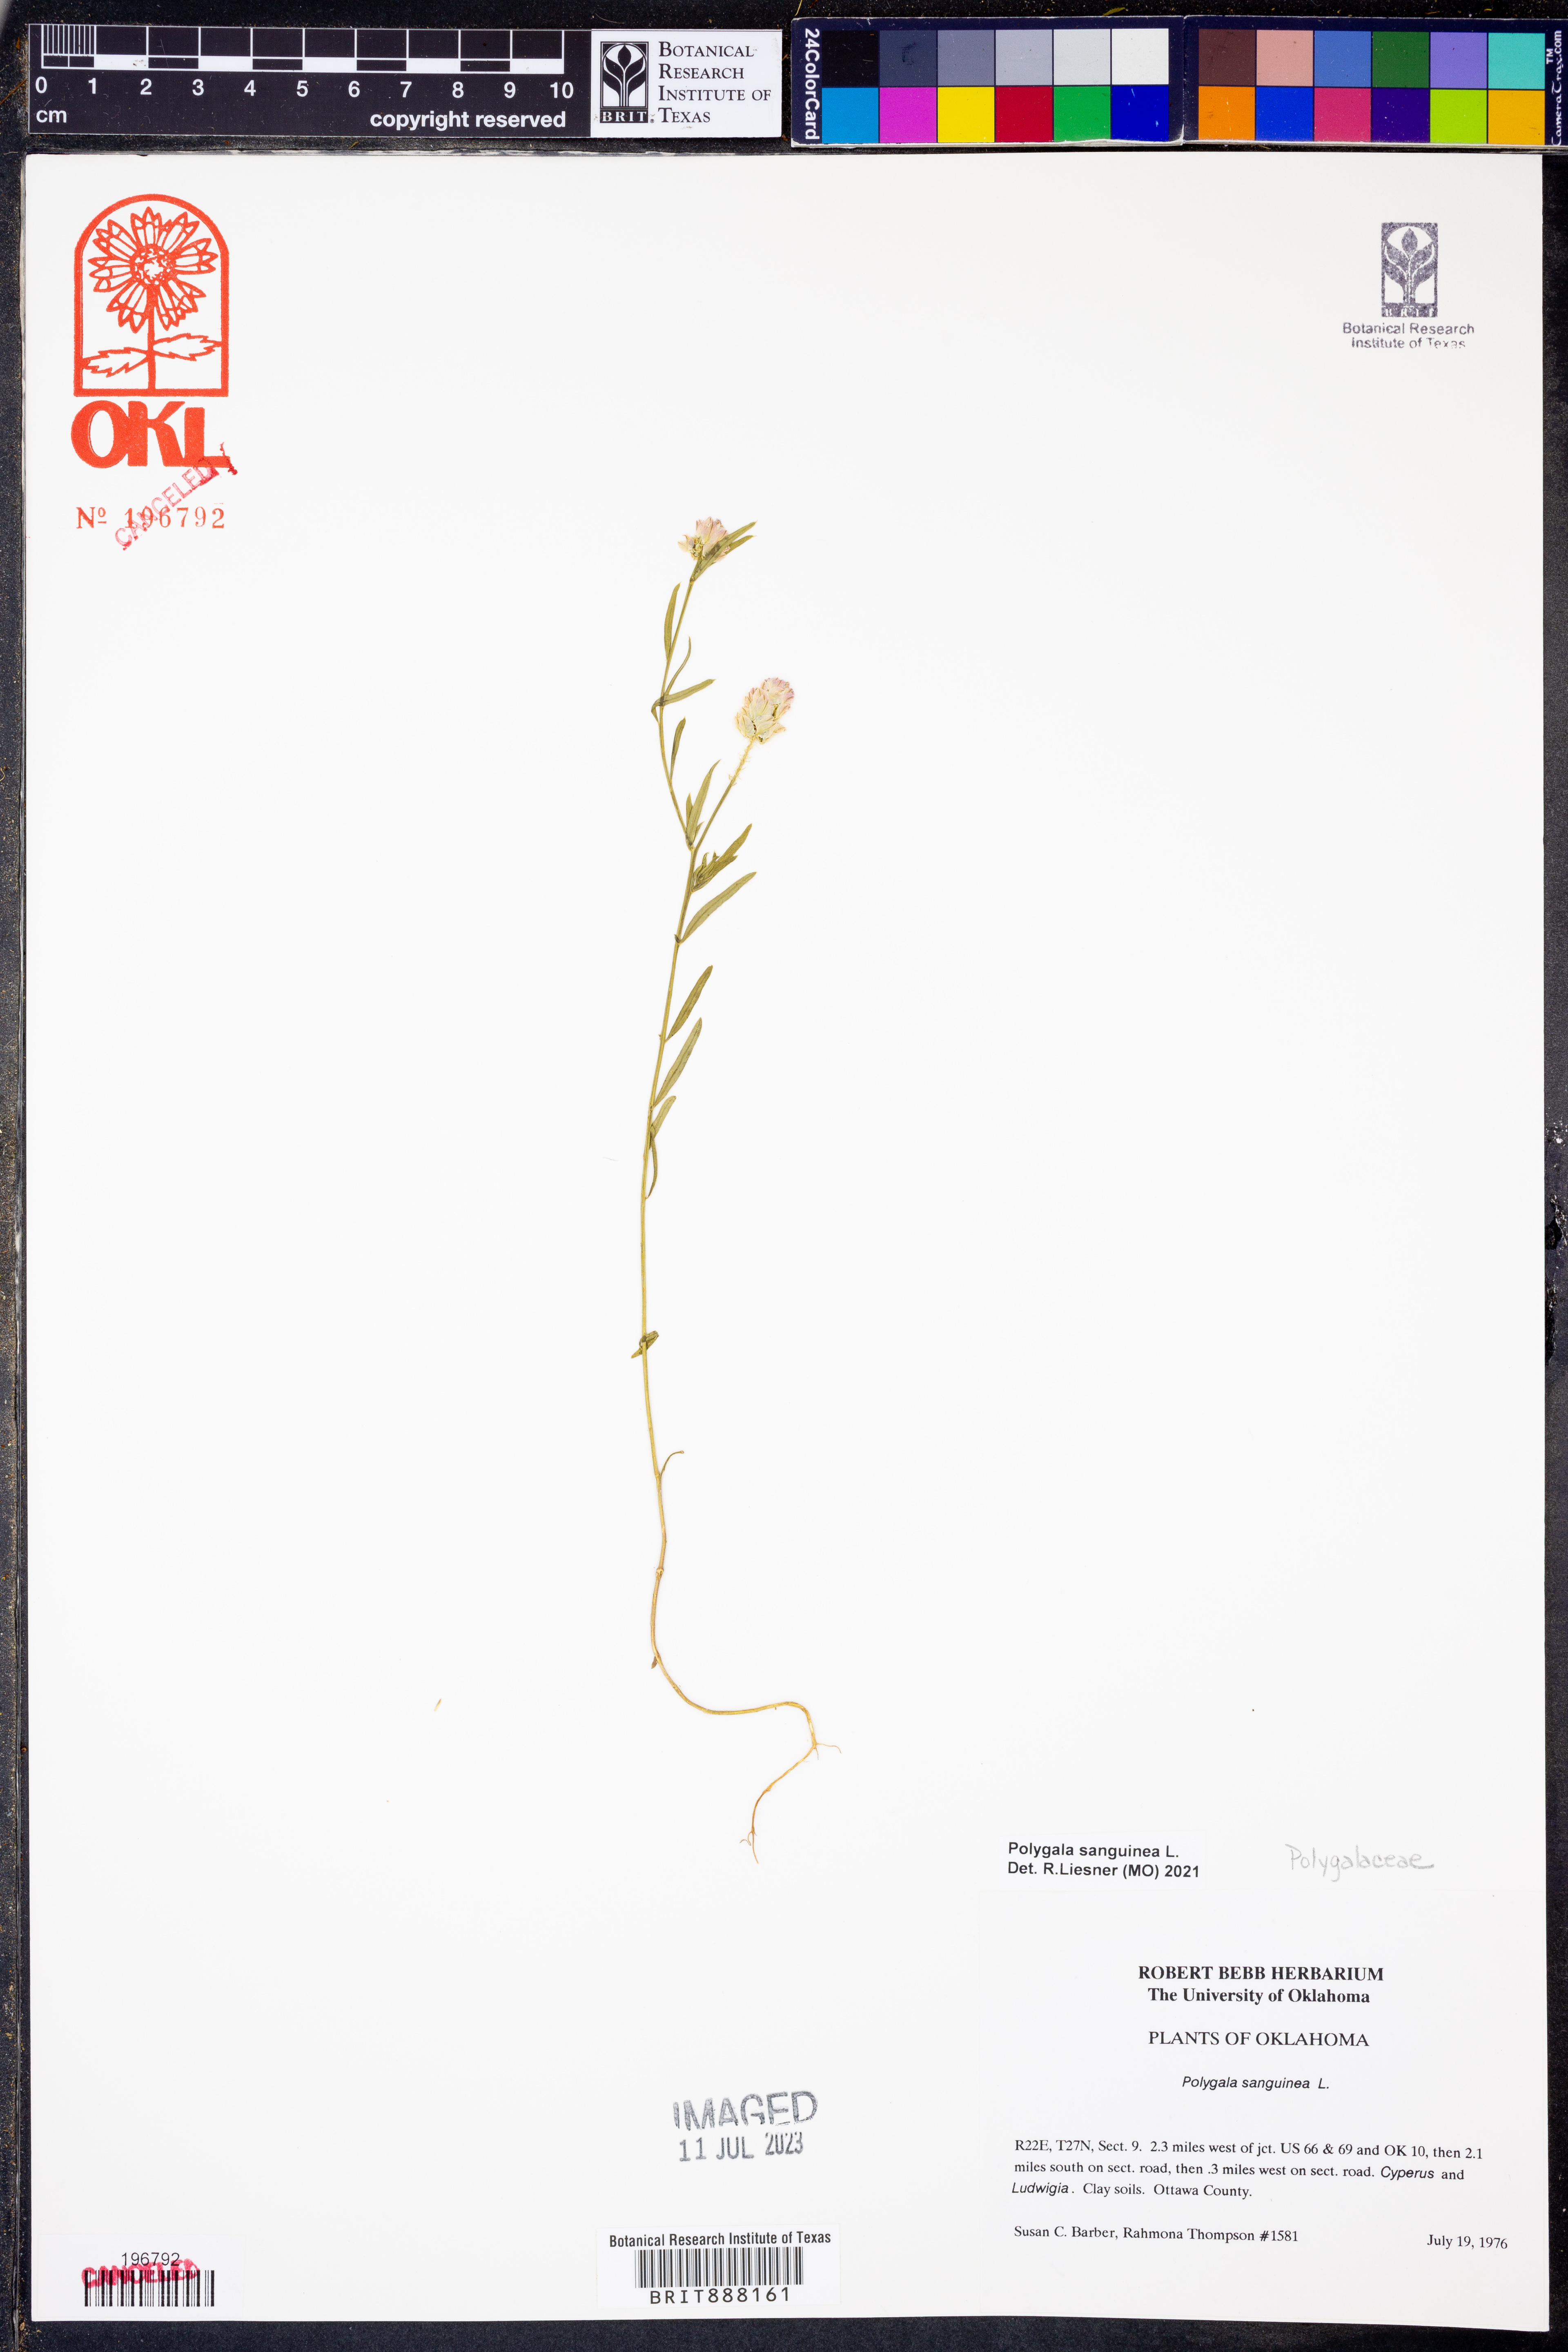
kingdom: Plantae
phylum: Tracheophyta
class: Magnoliopsida
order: Fabales
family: Polygalaceae
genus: Polygala
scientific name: Polygala sanguinea
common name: Blood milkwort
